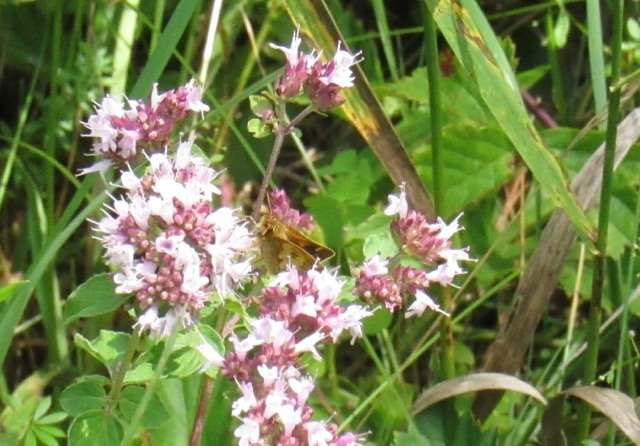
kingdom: Animalia
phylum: Arthropoda
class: Insecta
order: Lepidoptera
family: Hesperiidae
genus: Polites
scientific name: Polites coras
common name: Peck's Skipper
